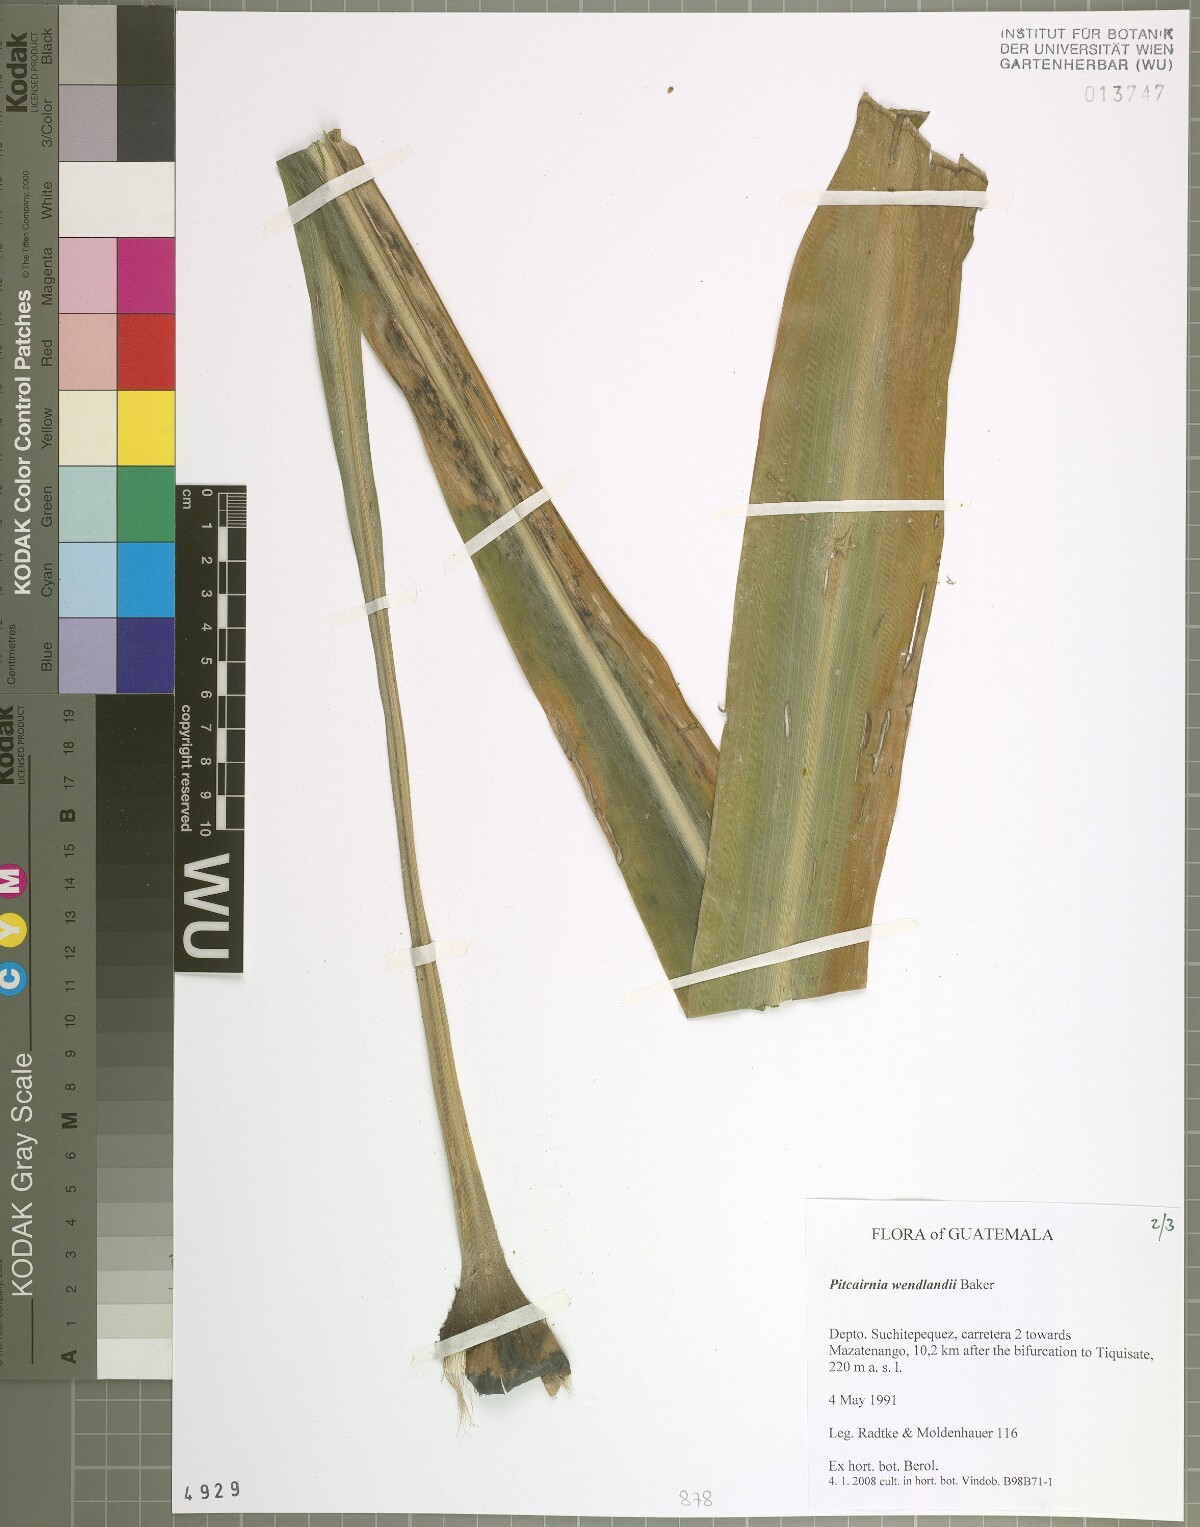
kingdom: Plantae
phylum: Tracheophyta
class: Liliopsida
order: Poales
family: Bromeliaceae
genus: Pitcairnia
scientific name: Pitcairnia wendlandii
